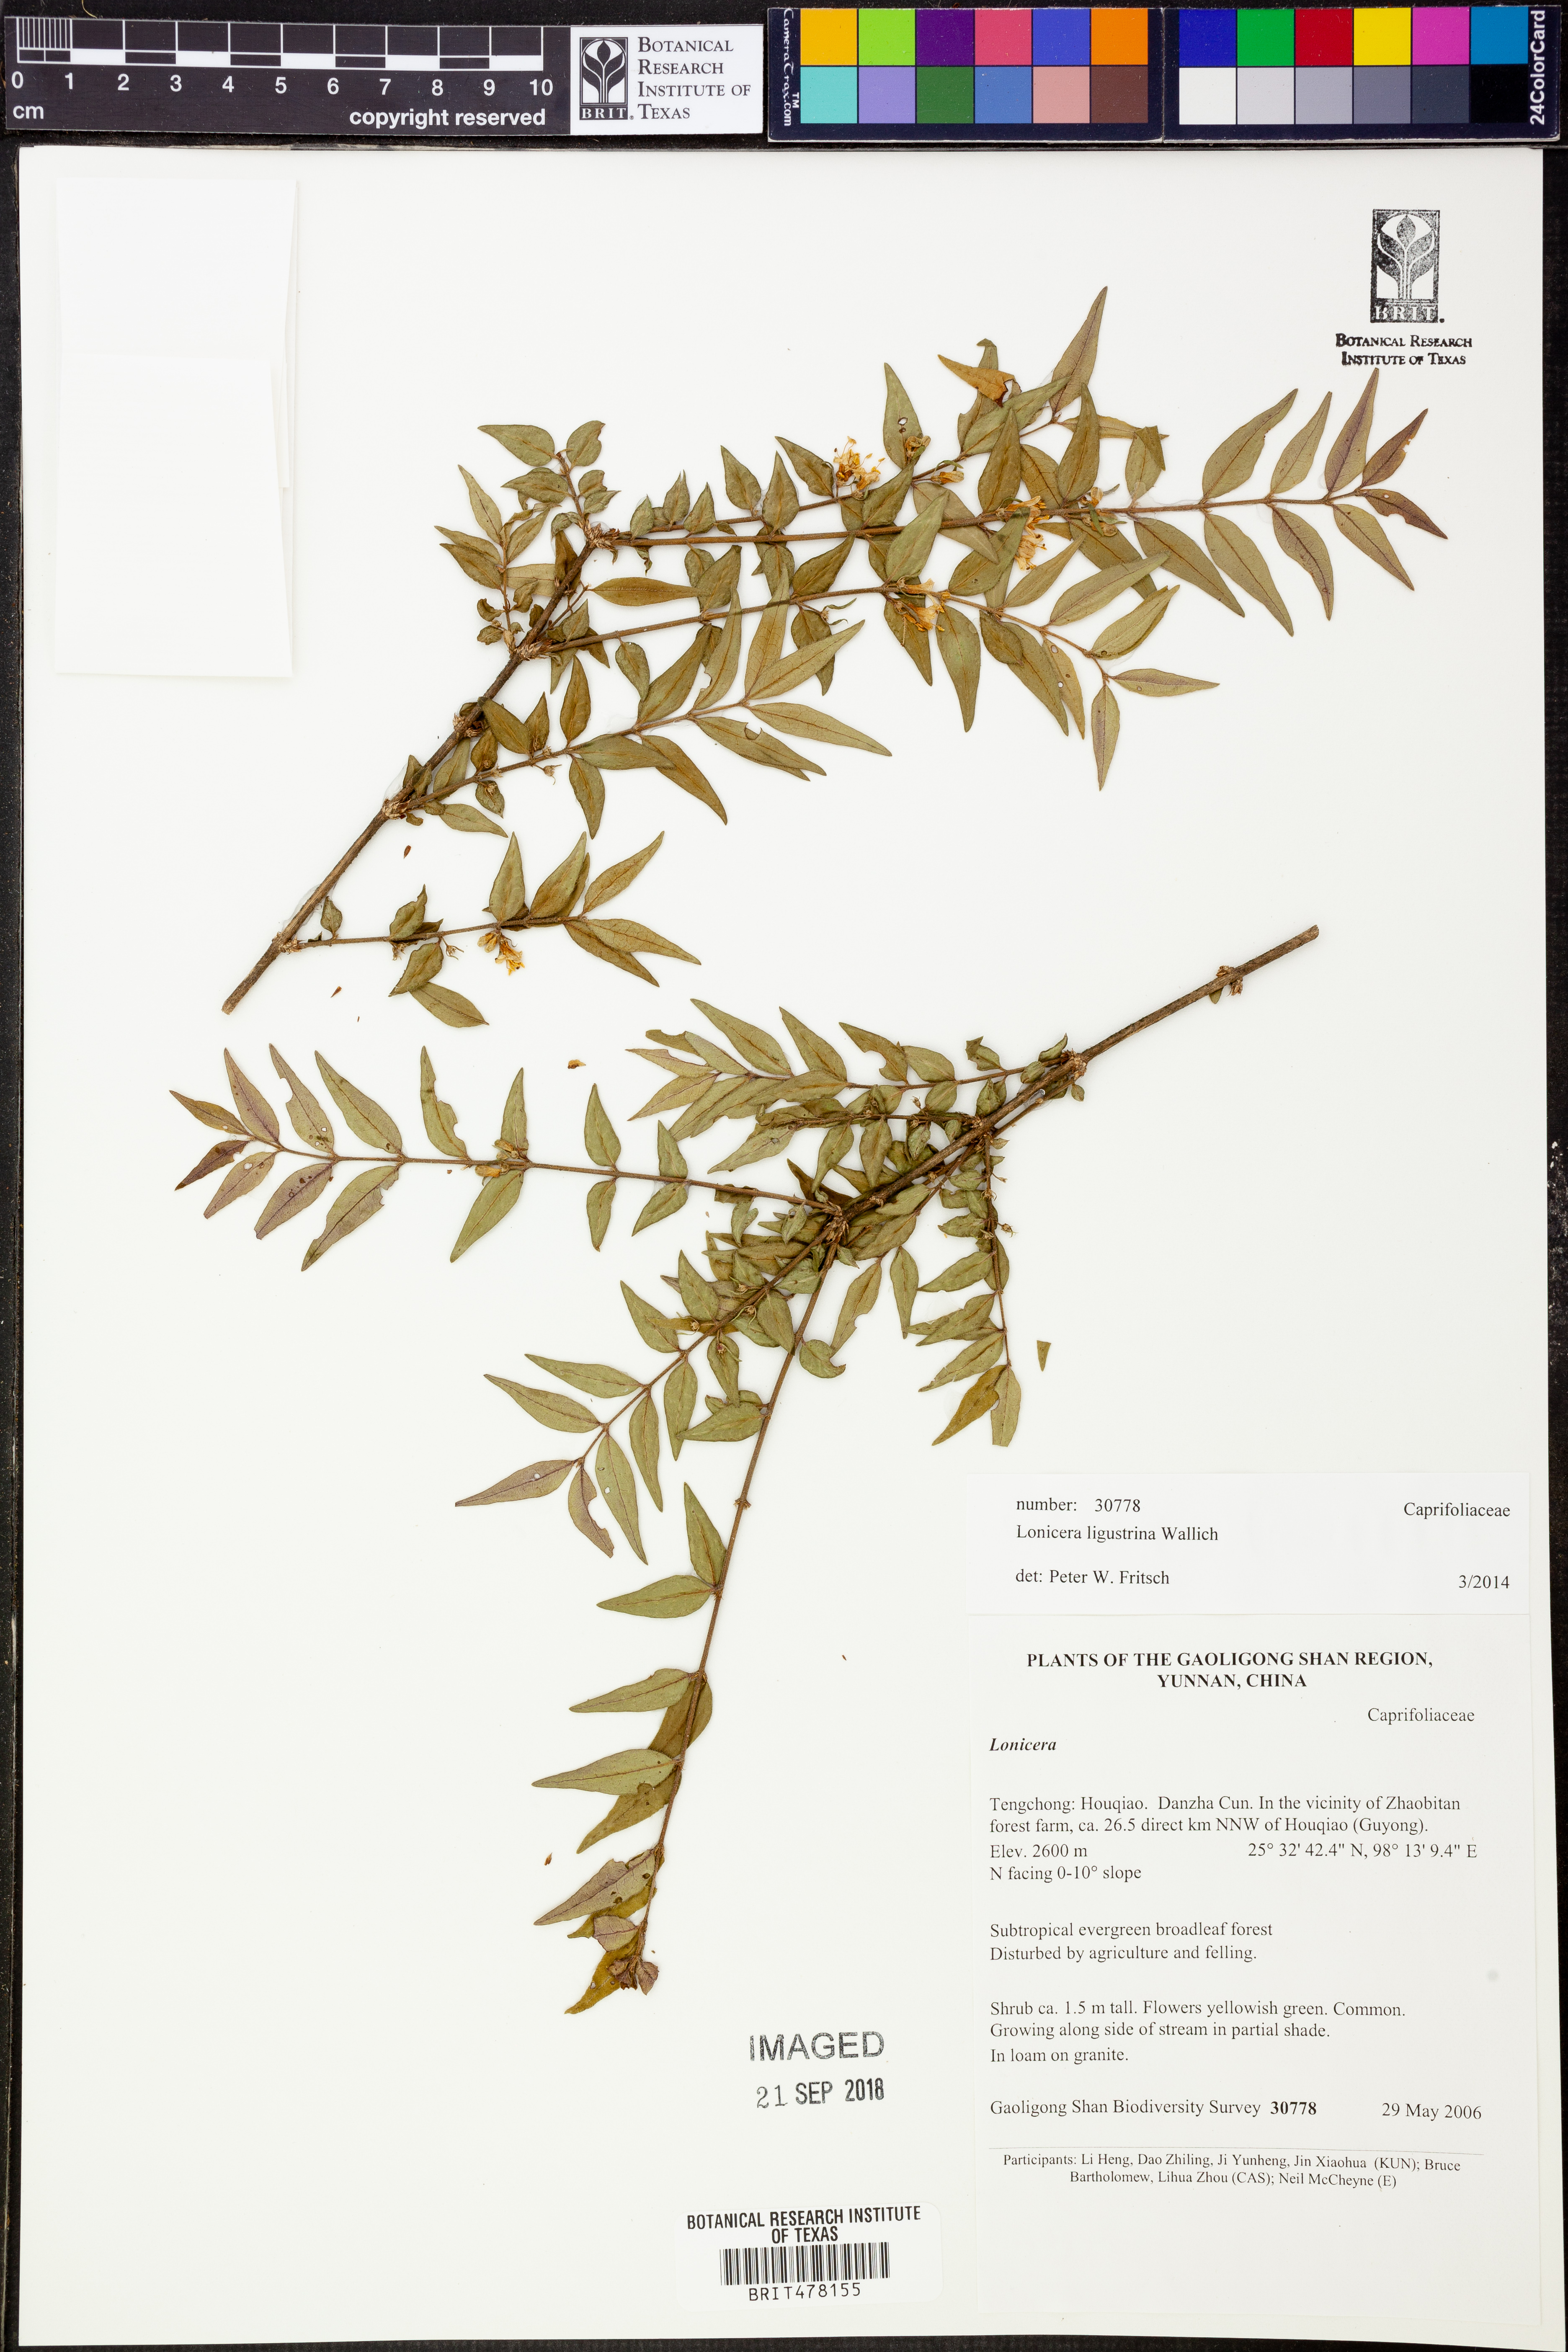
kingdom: Plantae
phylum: Tracheophyta
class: Magnoliopsida
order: Dipsacales
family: Caprifoliaceae
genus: Lonicera
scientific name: Lonicera ligustrina
